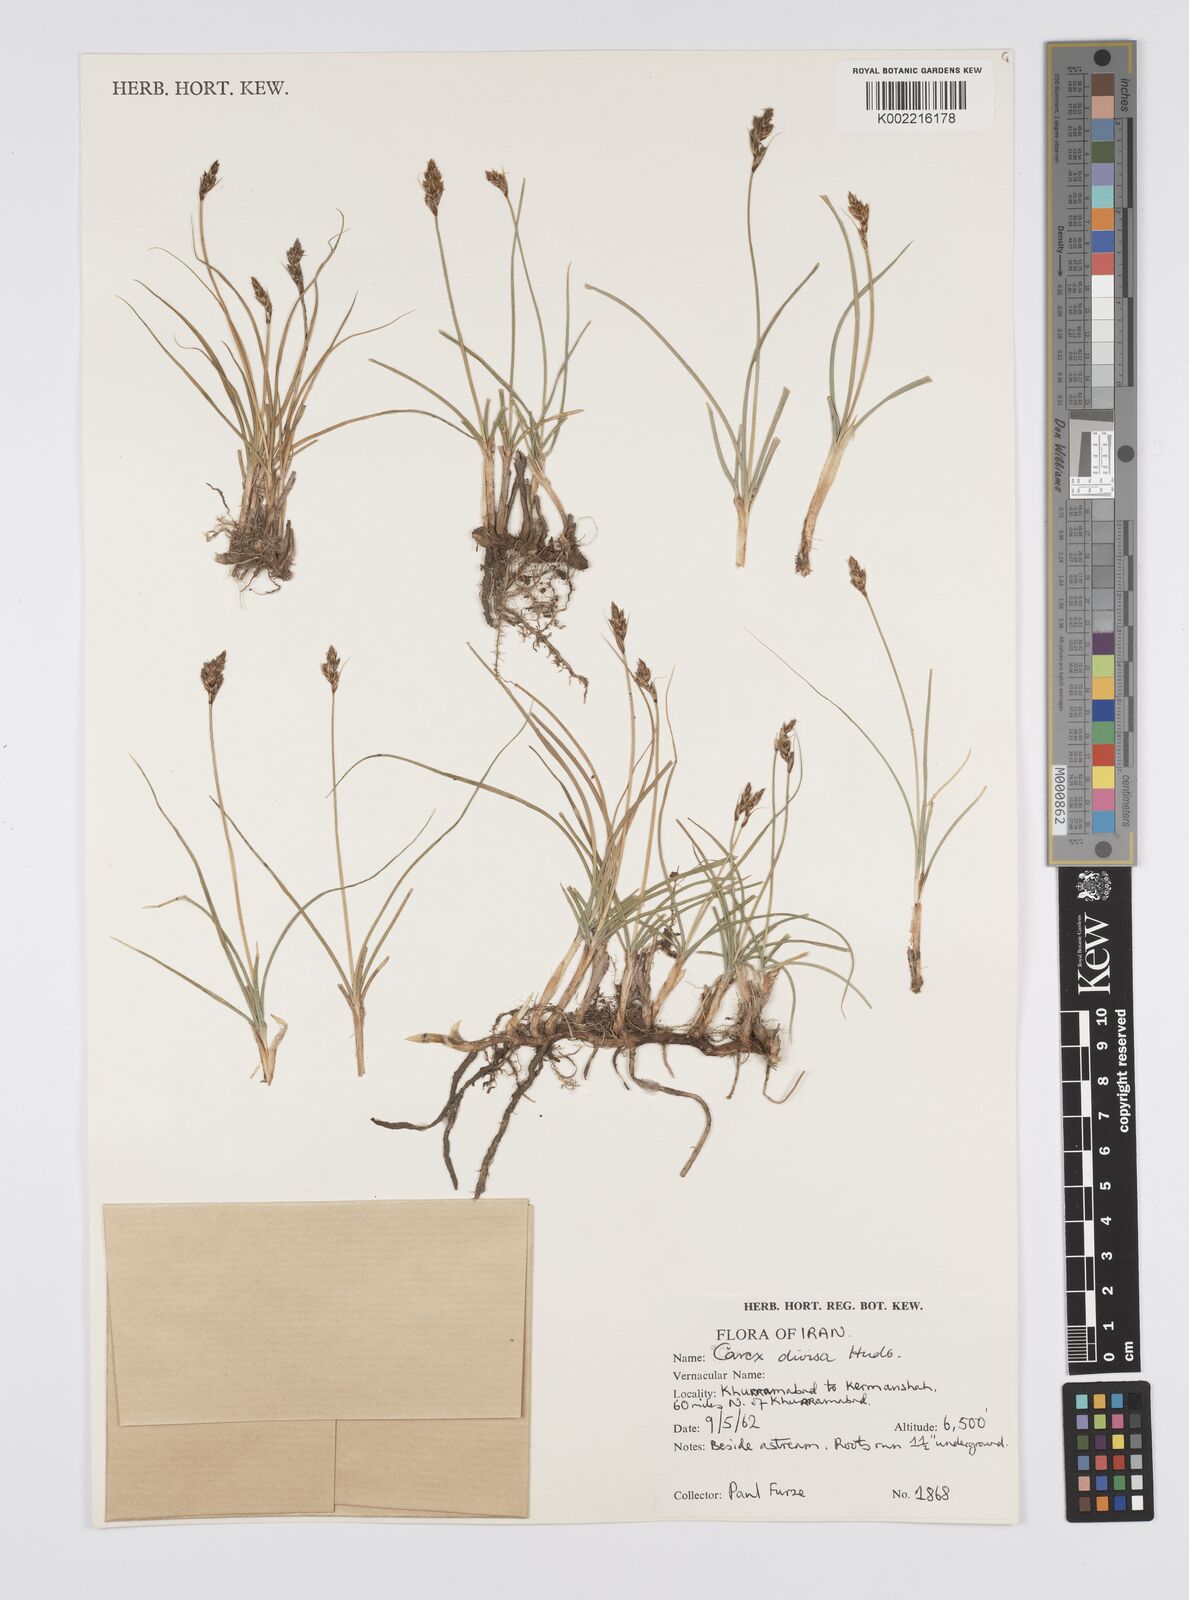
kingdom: Plantae
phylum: Tracheophyta
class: Liliopsida
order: Poales
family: Cyperaceae
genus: Carex
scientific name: Carex divisa
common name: Divided sedge
